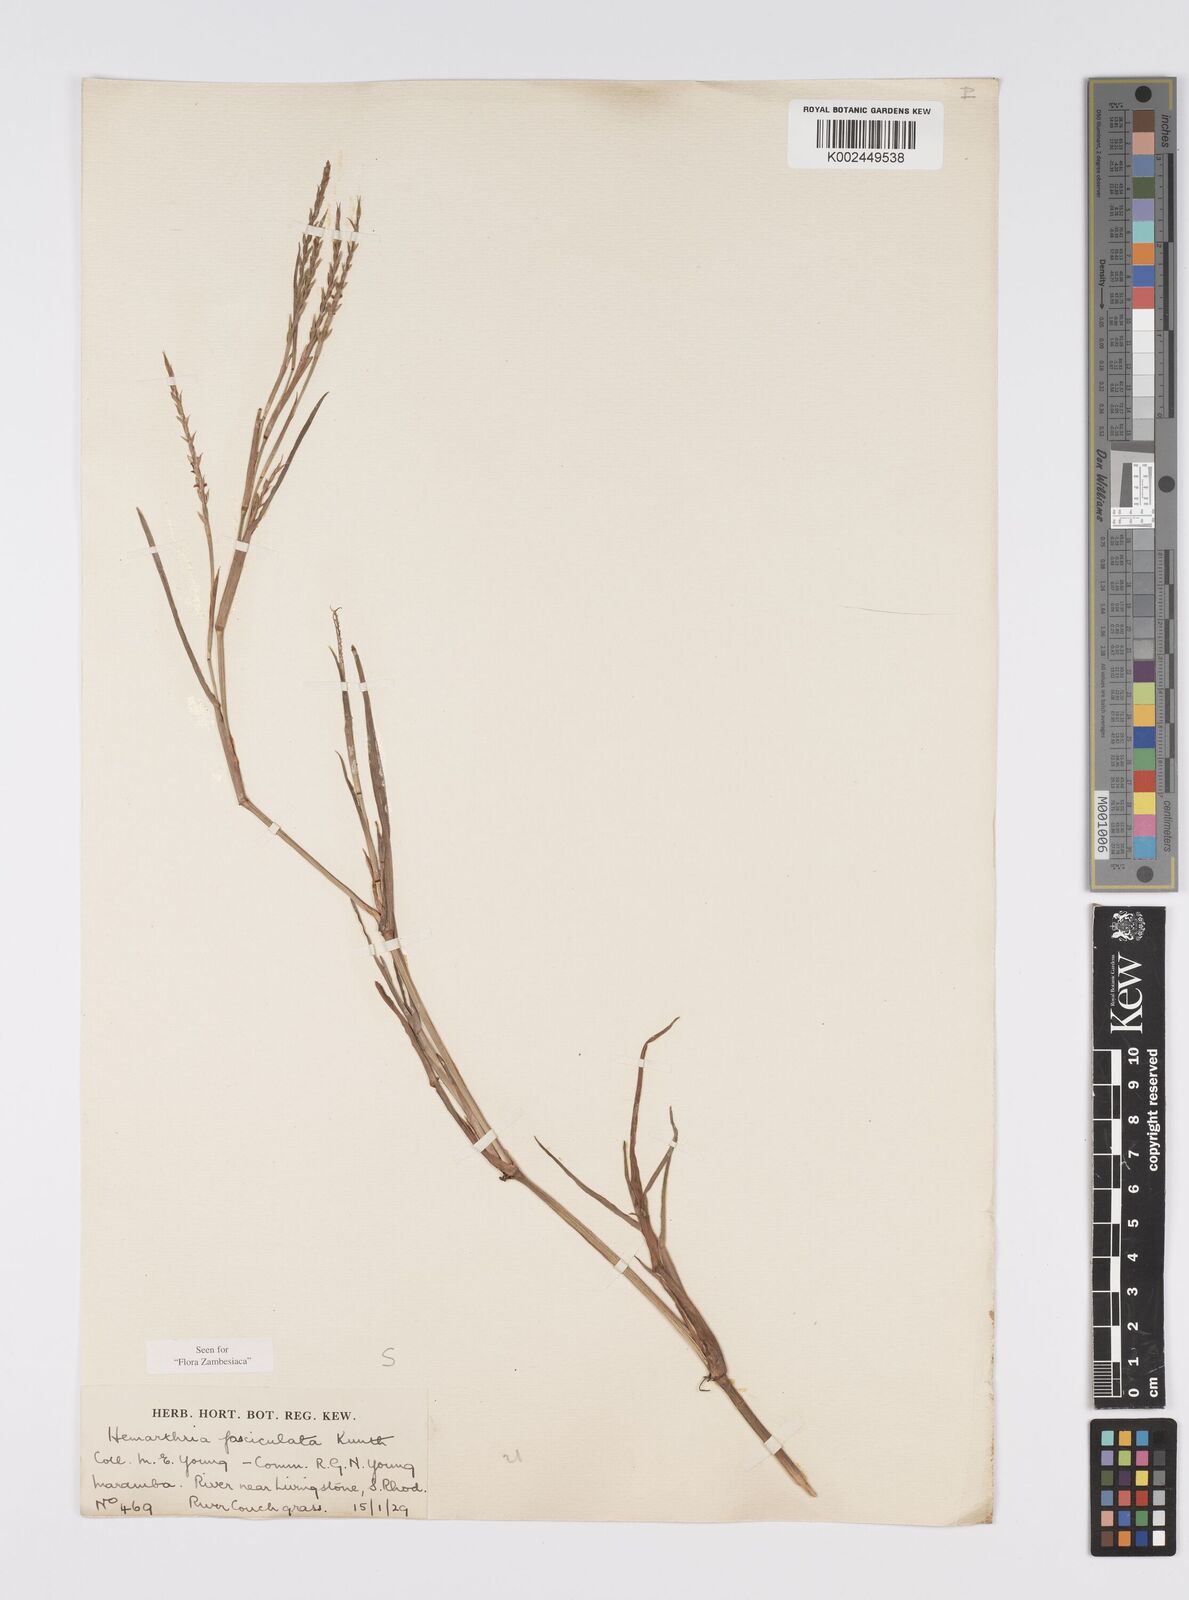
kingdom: Plantae
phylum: Tracheophyta
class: Liliopsida
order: Poales
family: Poaceae
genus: Hemarthria
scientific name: Hemarthria altissima
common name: African jointgrass
